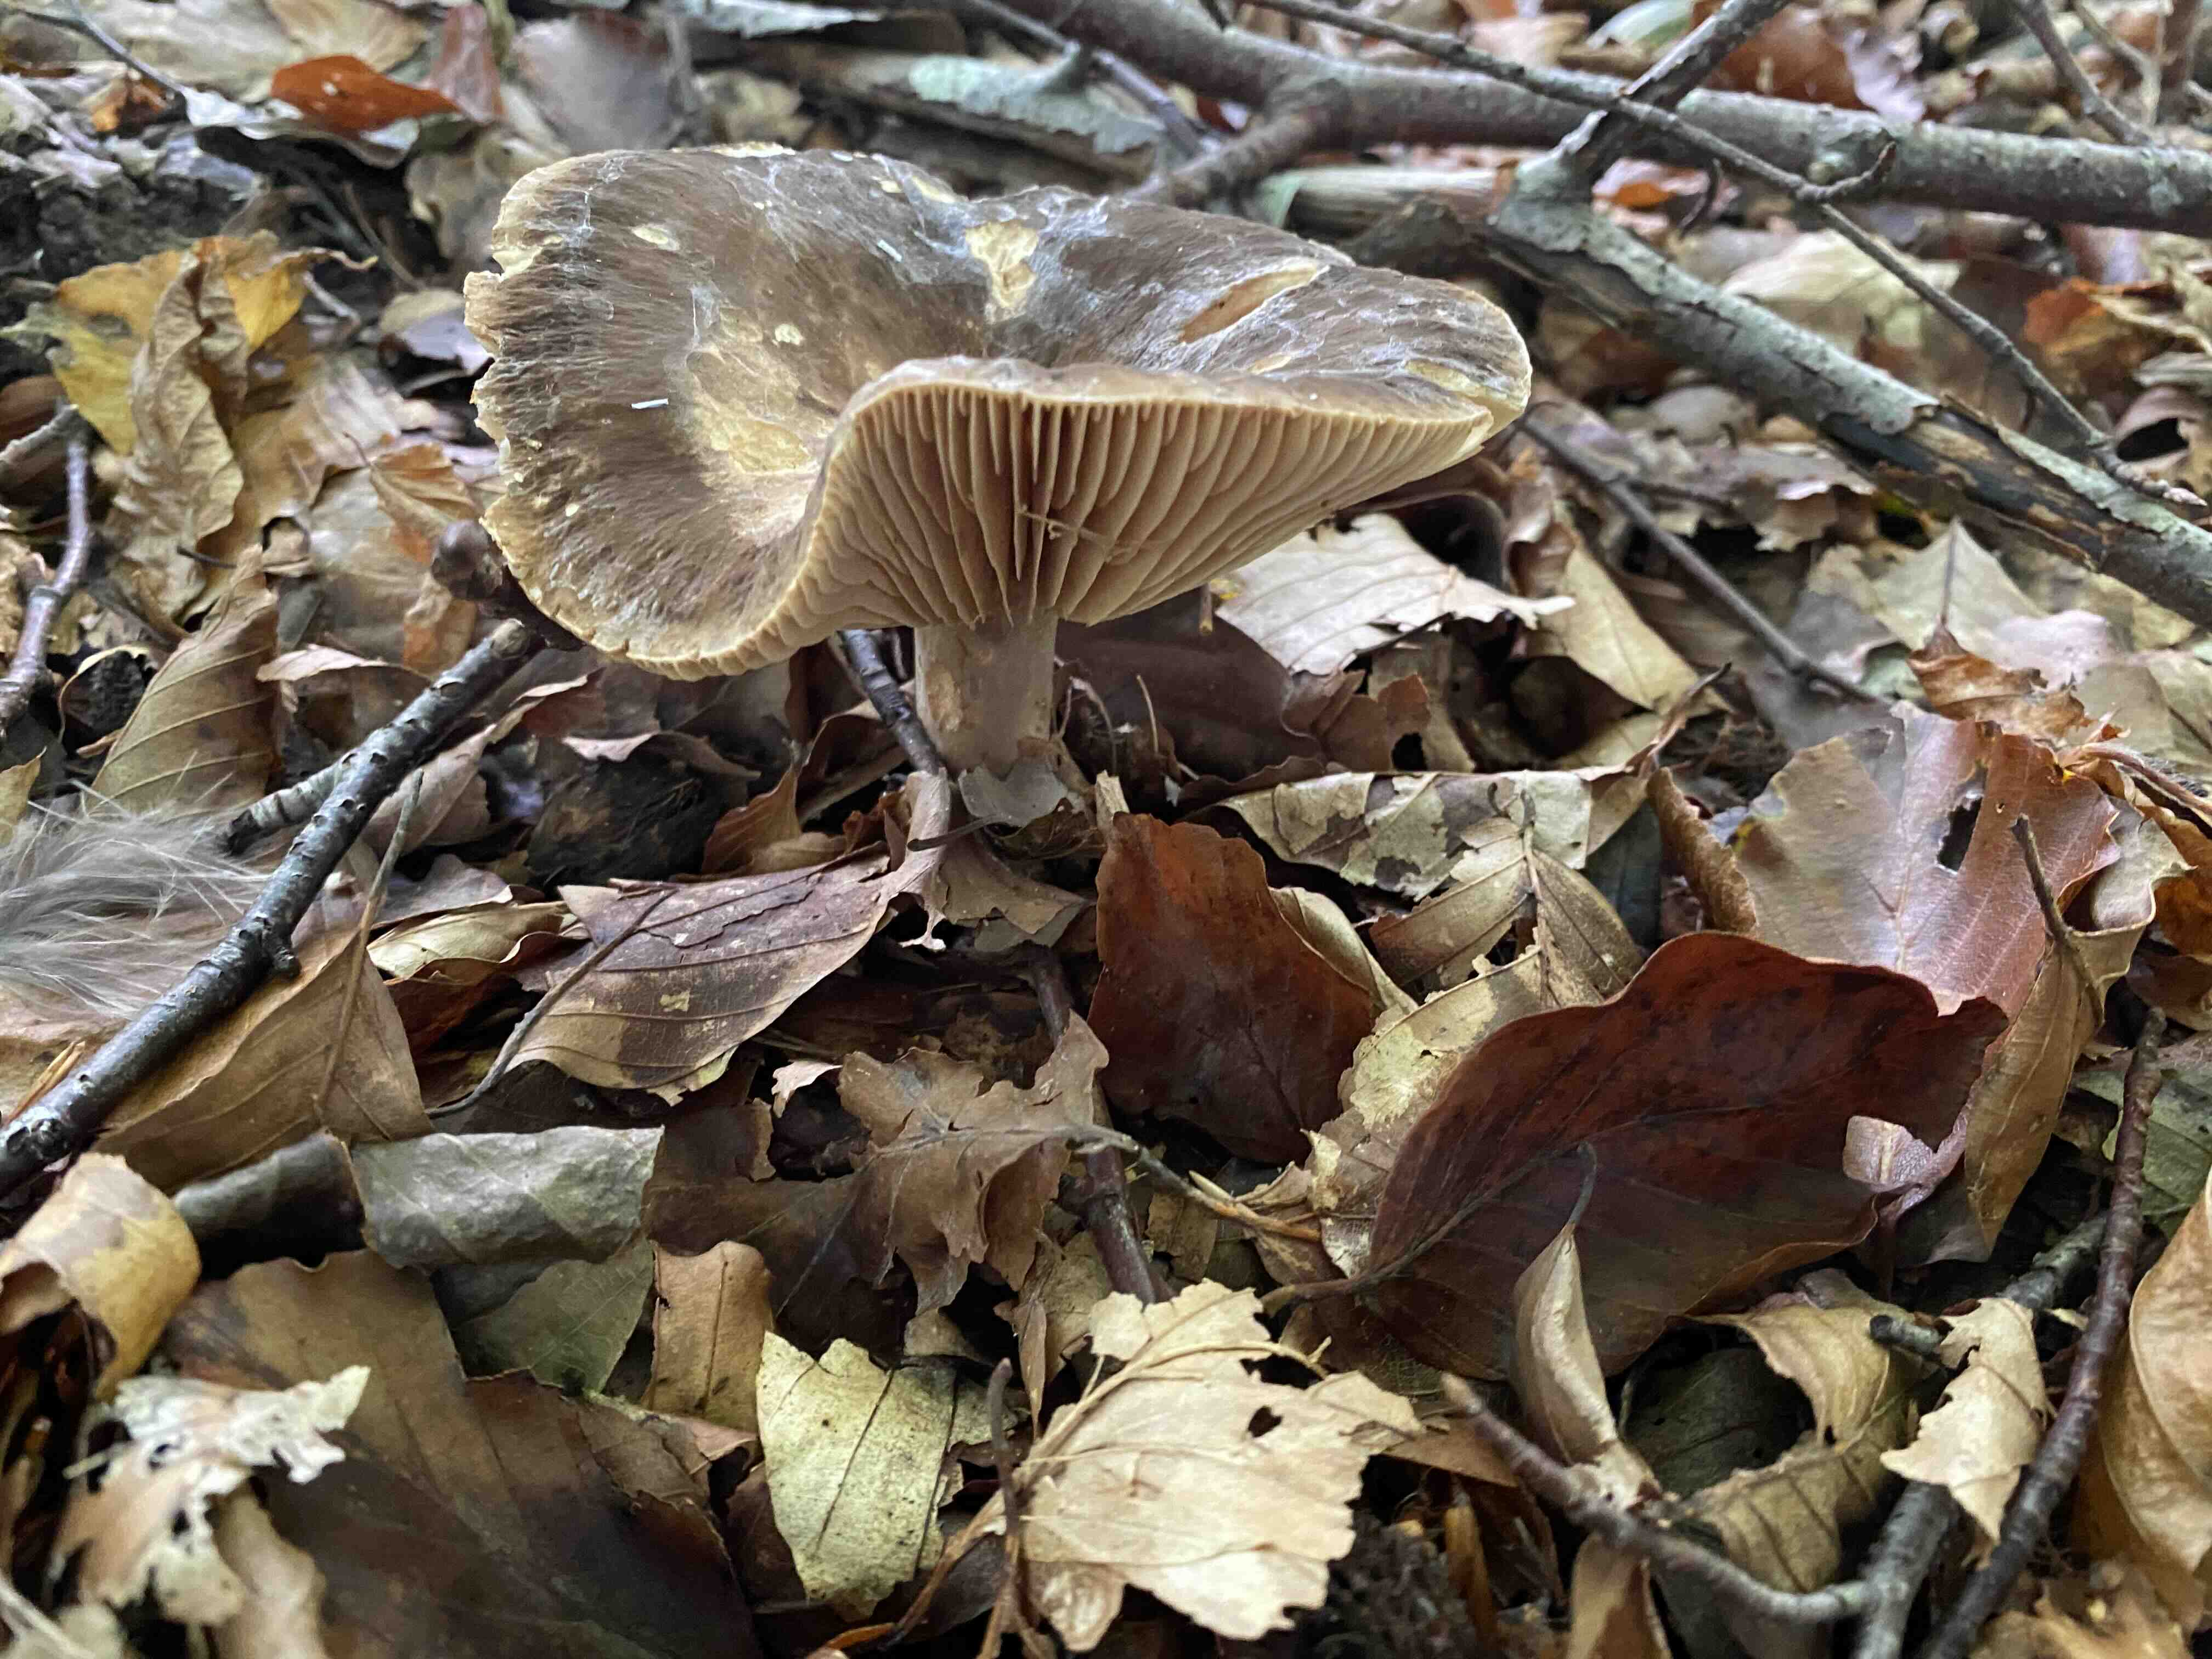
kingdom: Fungi
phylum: Basidiomycota
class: Agaricomycetes
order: Russulales
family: Russulaceae
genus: Lactarius
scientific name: Lactarius romagnesii
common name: fjernbladet mælkehat
